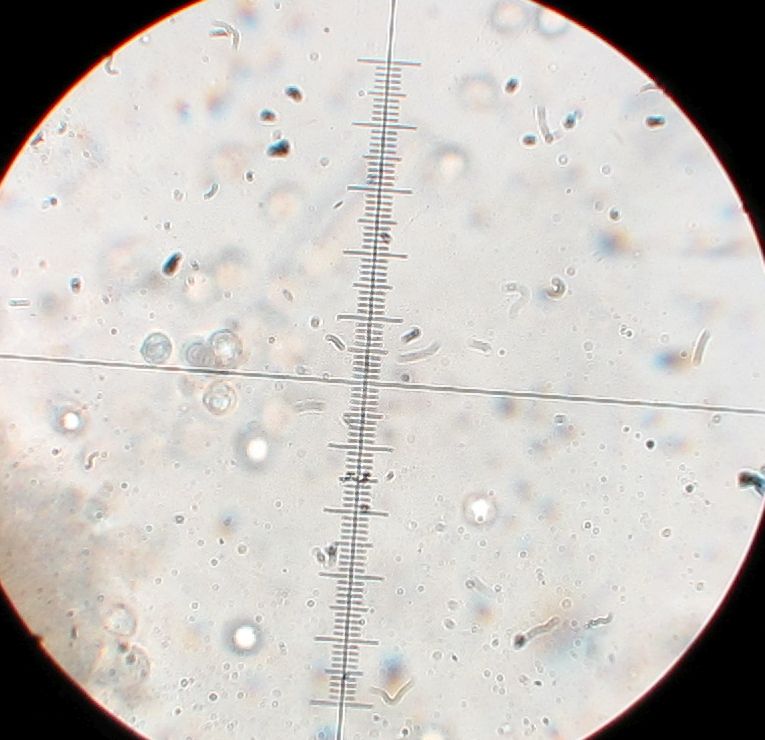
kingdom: Fungi
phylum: Basidiomycota
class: Agaricomycetes
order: Agaricales
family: Lyophyllaceae
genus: Tephrocybe
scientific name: Tephrocybe anthracophila
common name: svedje-gråblad
